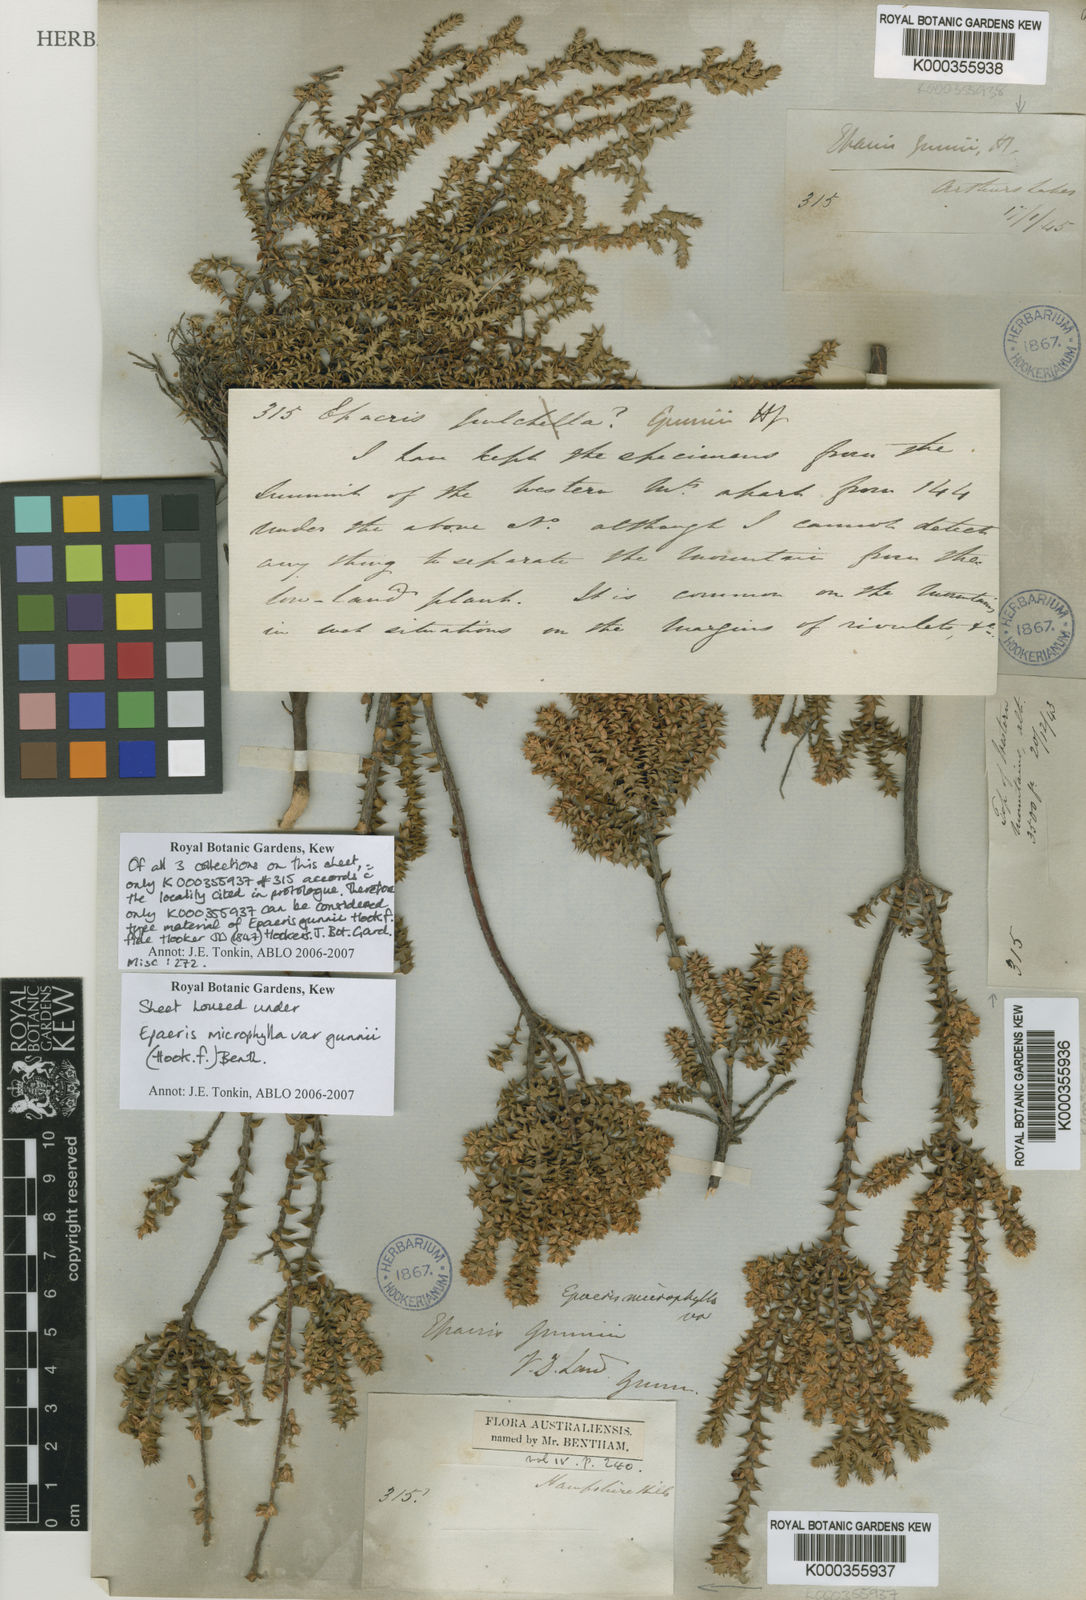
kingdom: Plantae
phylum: Tracheophyta
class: Magnoliopsida
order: Ericales
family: Ericaceae
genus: Epacris
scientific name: Epacris microphylla
